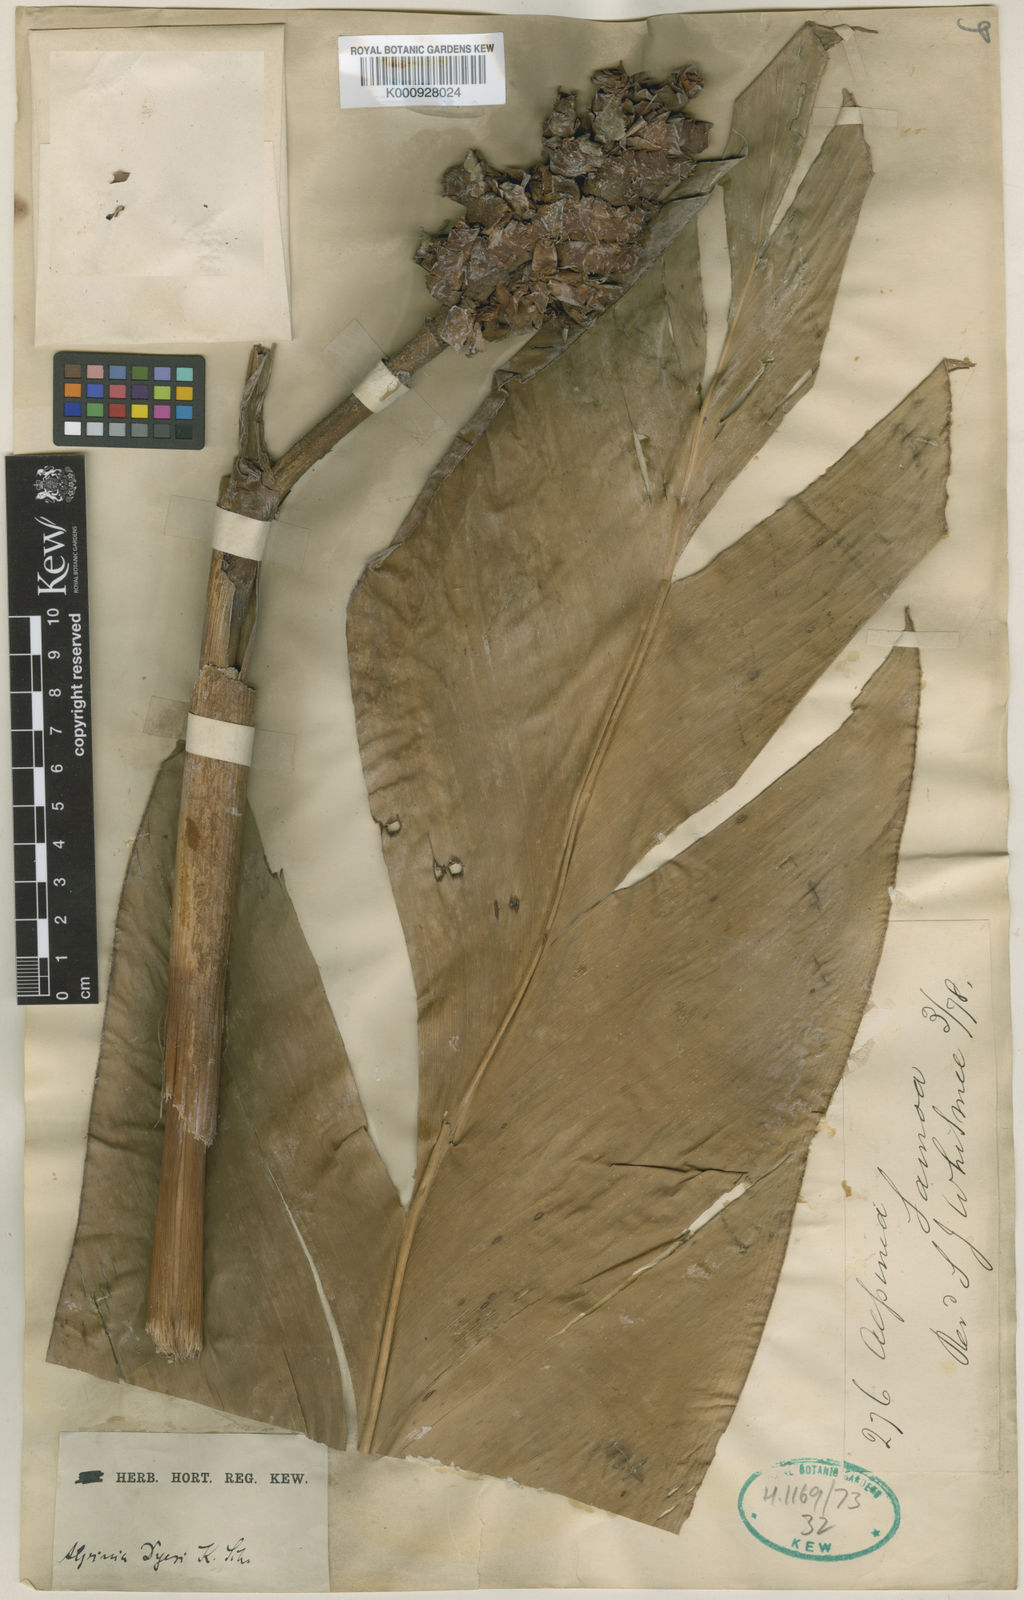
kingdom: Plantae
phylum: Tracheophyta
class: Liliopsida
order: Zingiberales
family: Zingiberaceae
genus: Alpinia
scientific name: Alpinia dyeri
